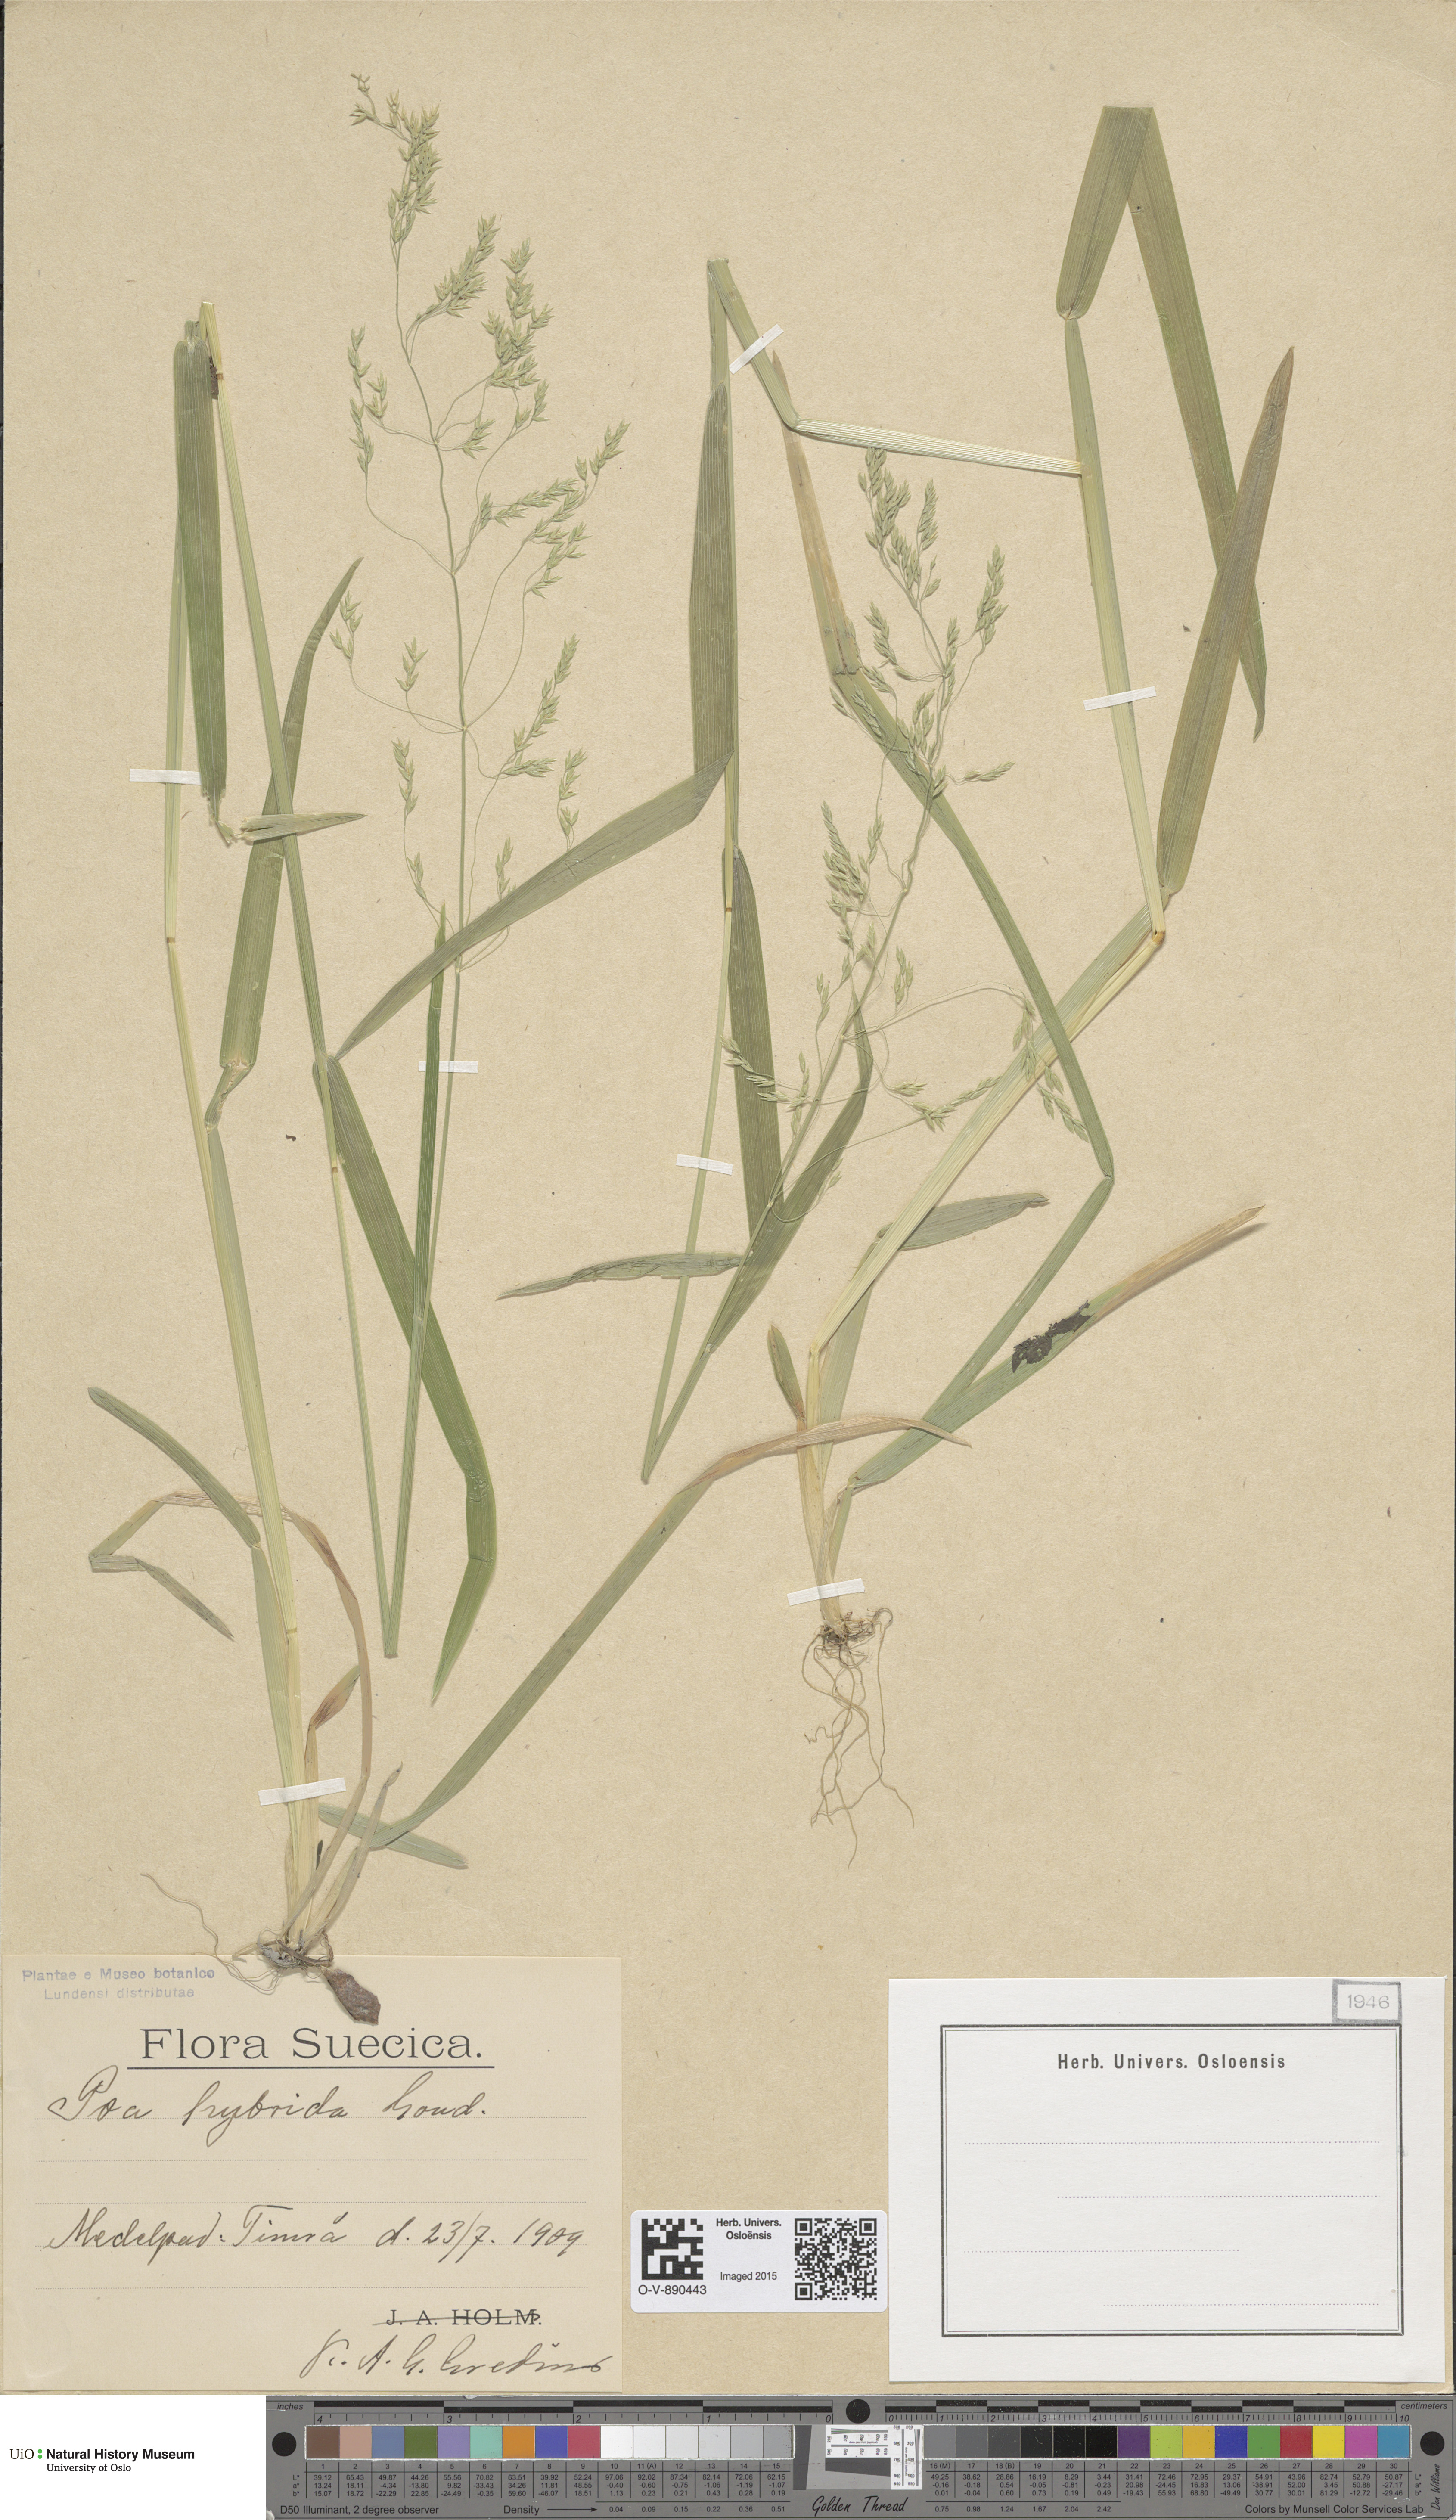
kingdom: Plantae
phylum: Tracheophyta
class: Liliopsida
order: Poales
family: Poaceae
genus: Poa
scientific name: Poa chaixii
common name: Broad-leaved meadow-grass
